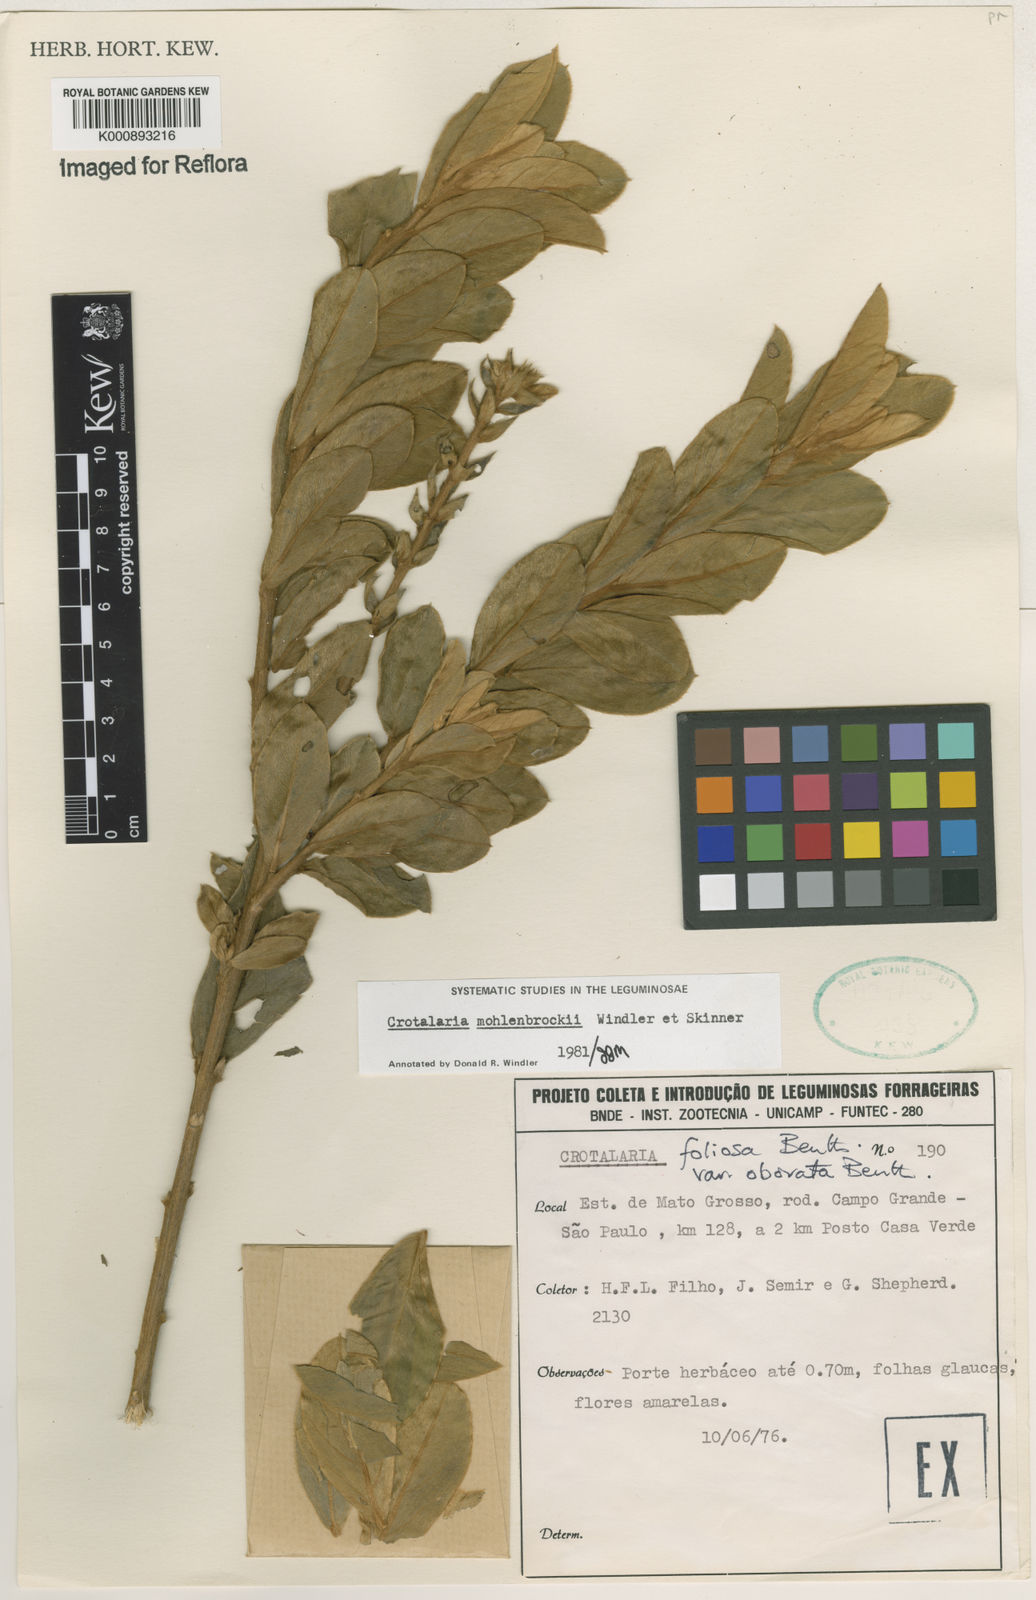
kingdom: Plantae
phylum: Tracheophyta
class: Magnoliopsida
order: Fabales
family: Fabaceae
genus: Crotalaria
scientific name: Crotalaria martiana
